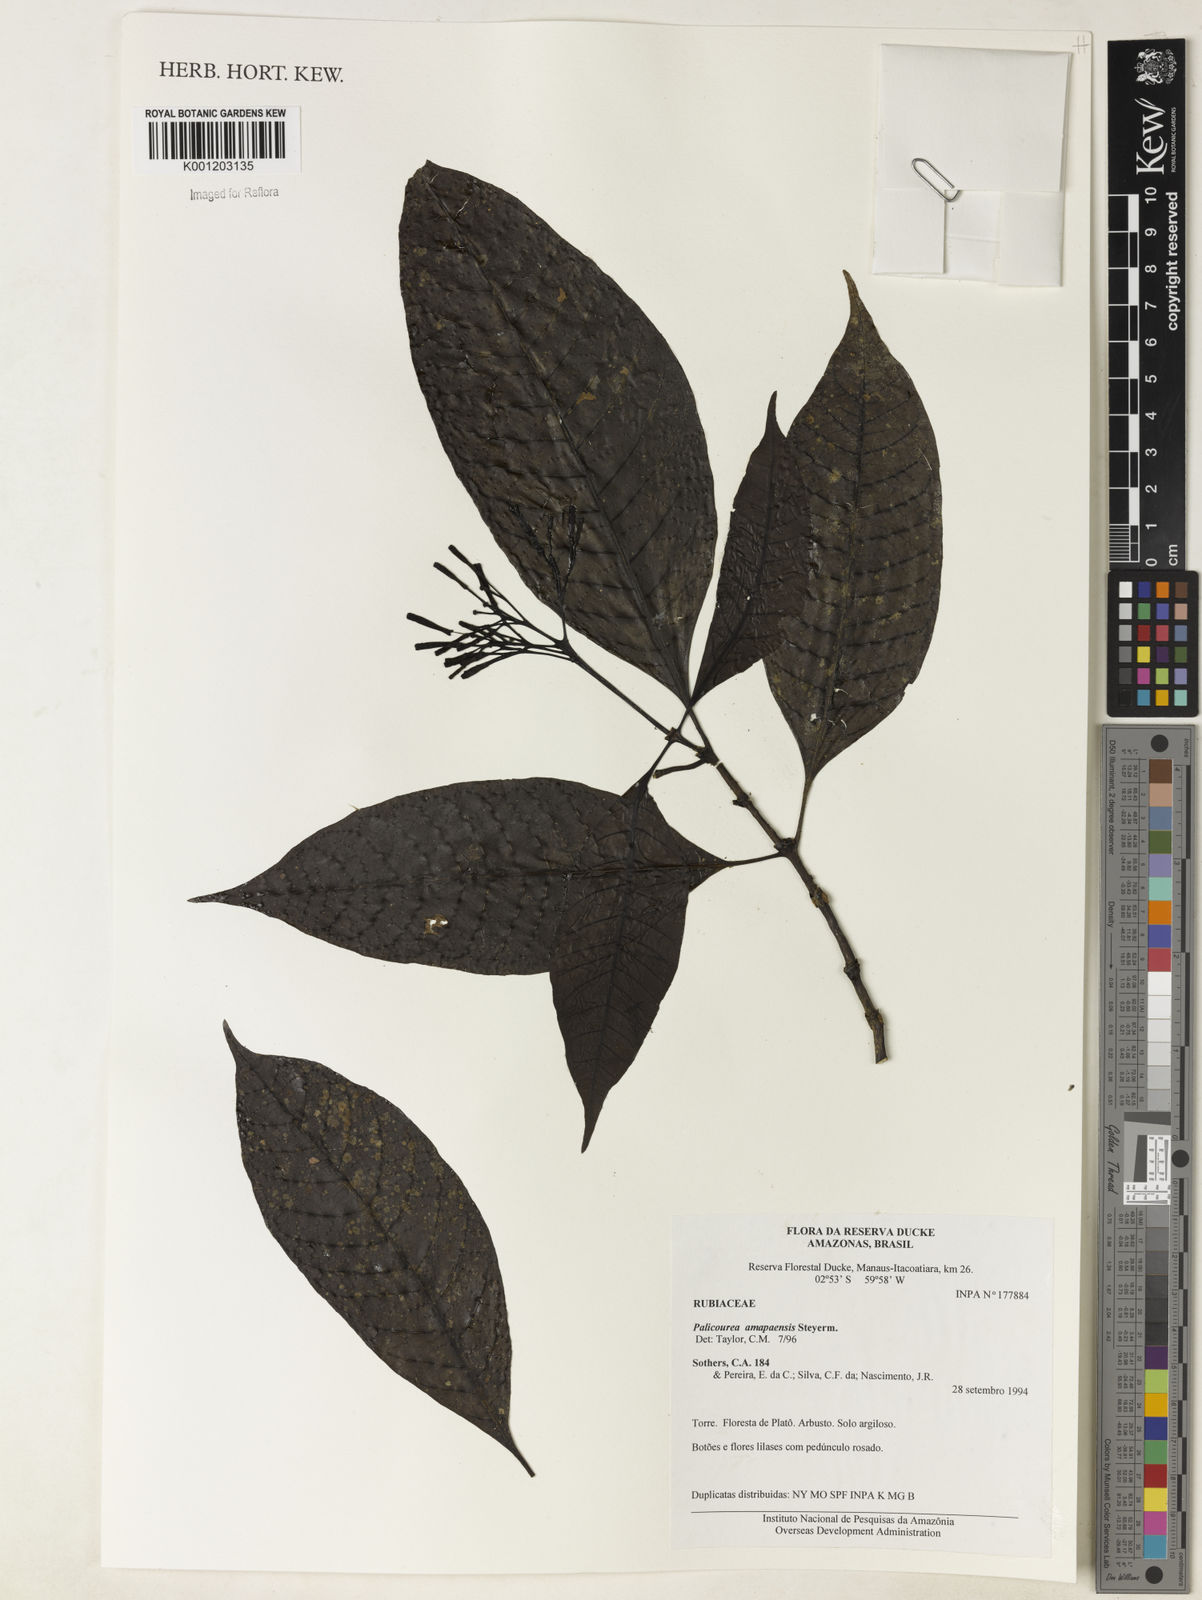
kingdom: Plantae
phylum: Tracheophyta
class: Magnoliopsida
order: Gentianales
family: Rubiaceae
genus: Palicourea
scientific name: Palicourea amapaensis
